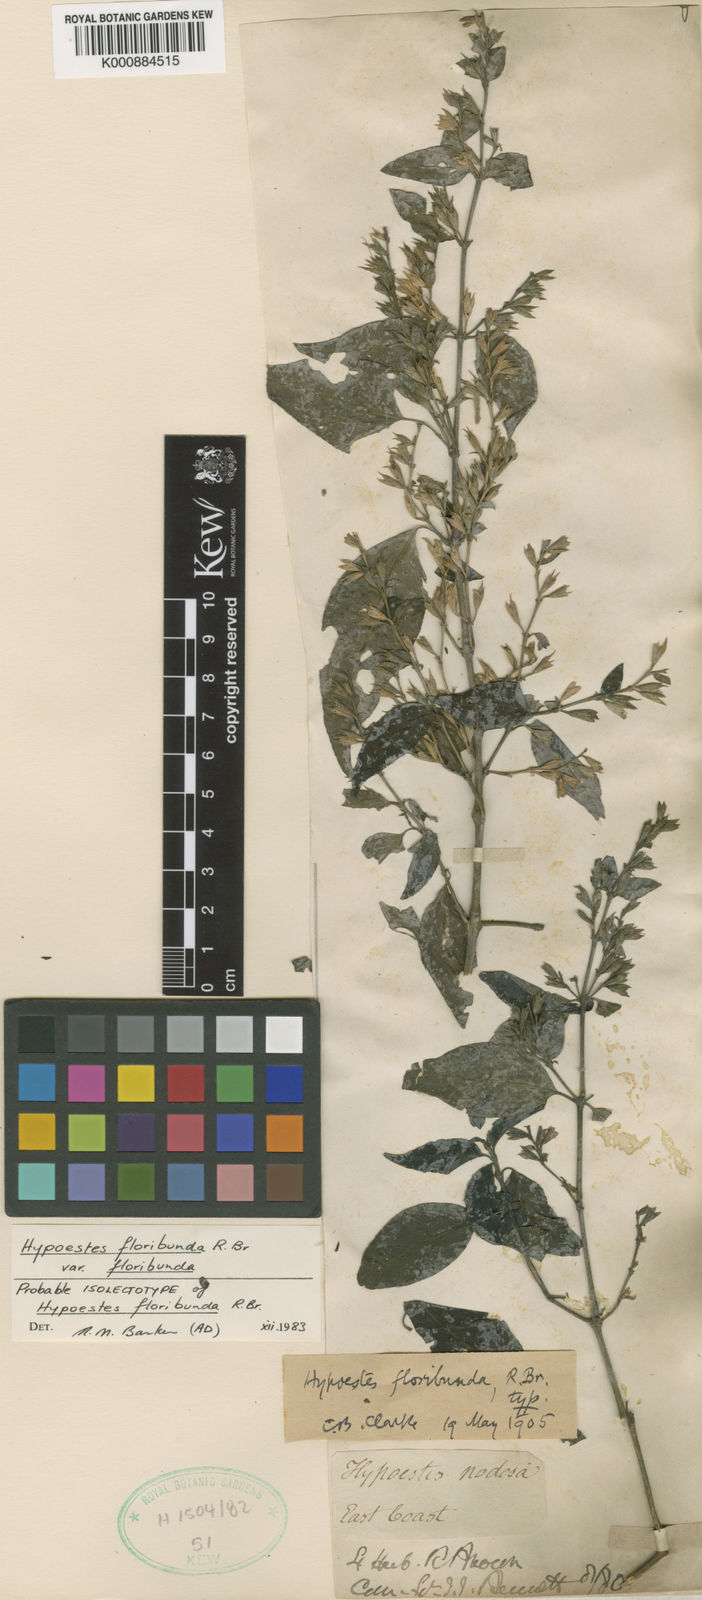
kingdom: Plantae
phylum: Tracheophyta
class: Magnoliopsida
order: Lamiales
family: Acanthaceae
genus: Hypoestes
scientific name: Hypoestes floribunda
